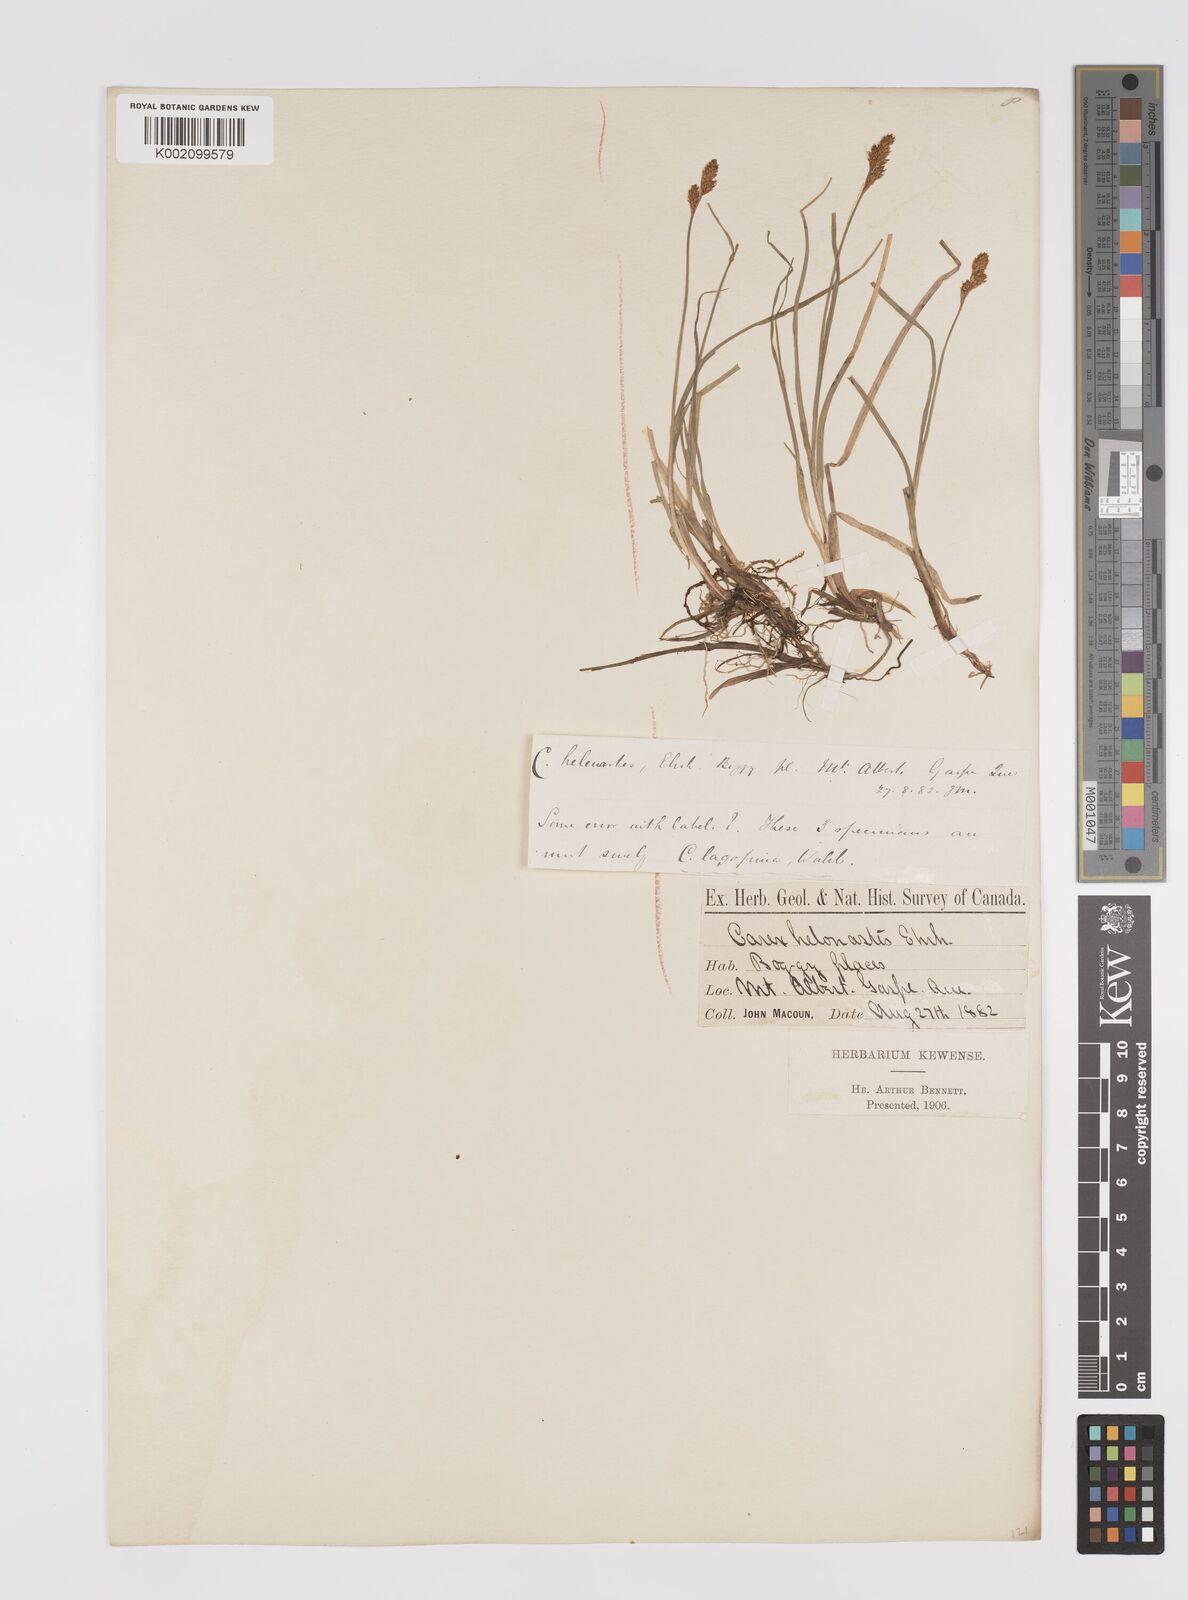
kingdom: Plantae
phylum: Tracheophyta
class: Liliopsida
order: Poales
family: Cyperaceae
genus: Carex
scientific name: Carex heleonastes
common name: Hudson bay sedge
